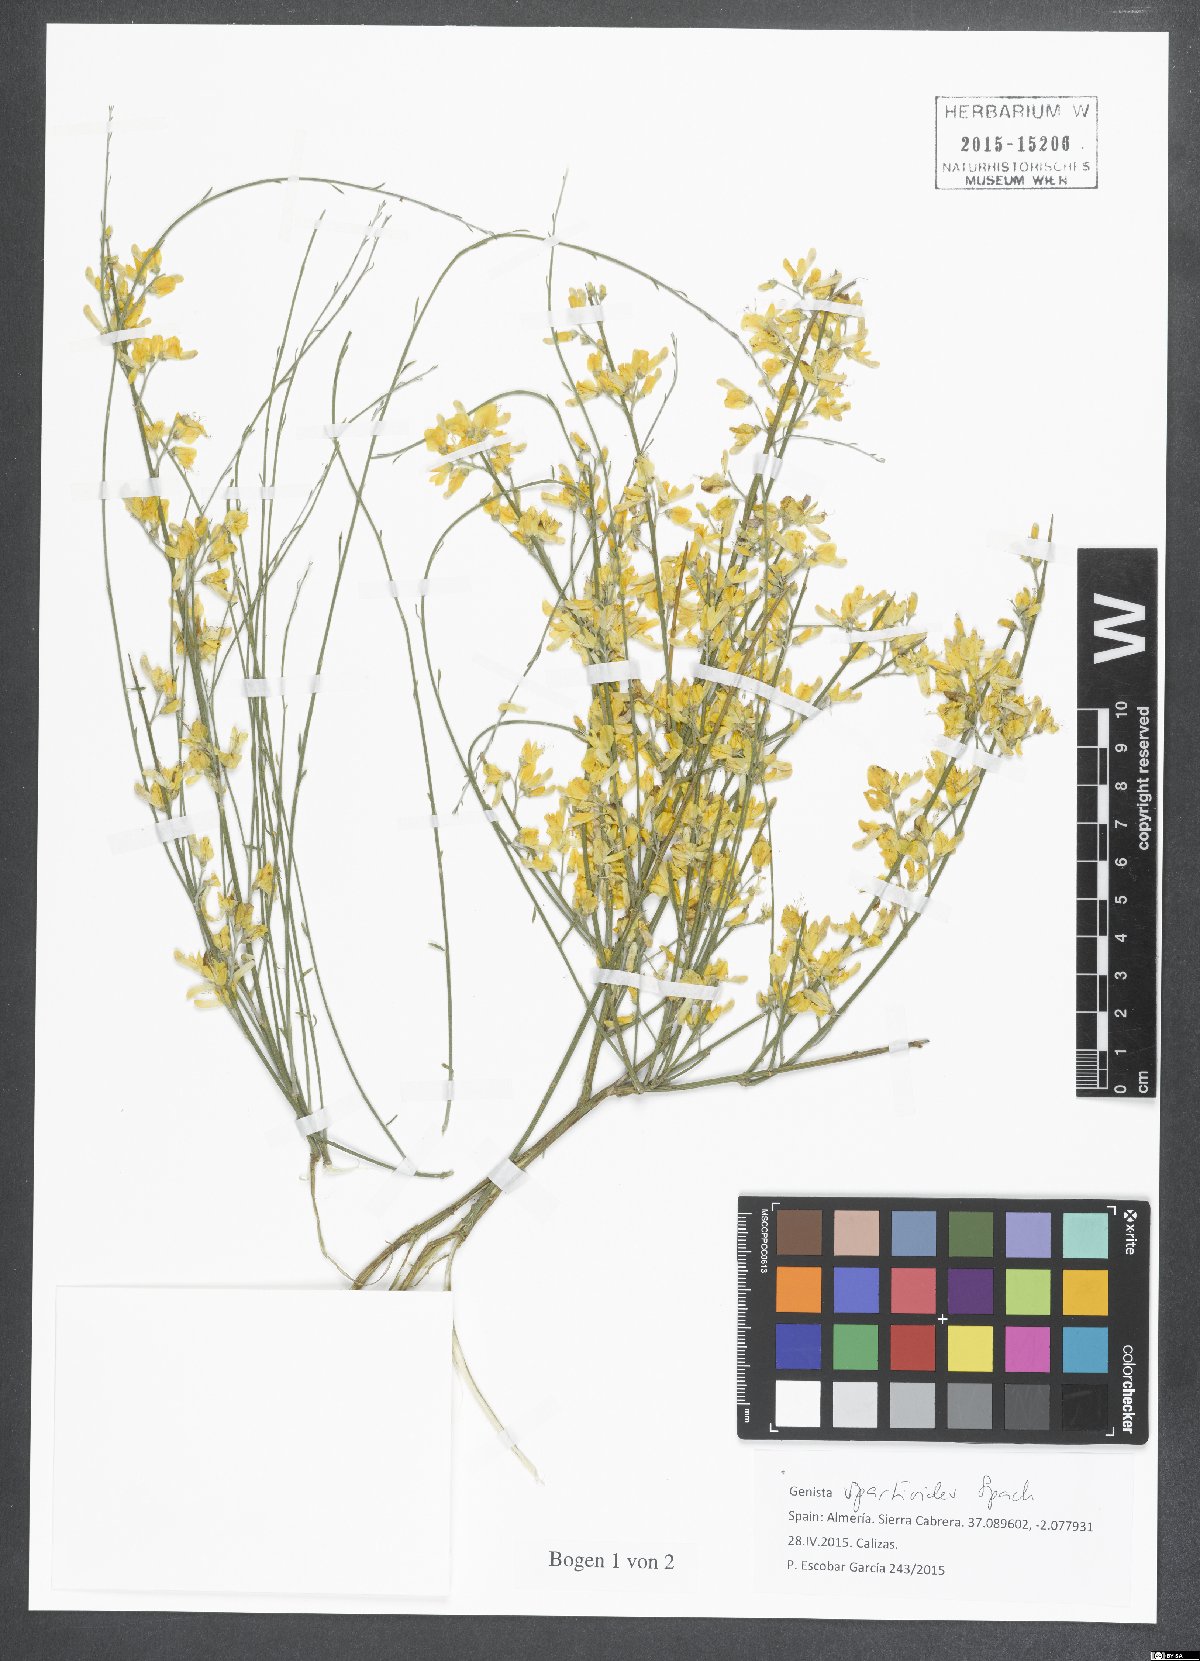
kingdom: Plantae
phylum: Tracheophyta
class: Magnoliopsida
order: Fabales
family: Fabaceae
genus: Genista
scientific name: Genista spartioides
